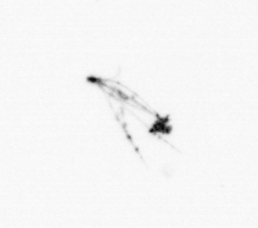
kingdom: Chromista
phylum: Ochrophyta
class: Bacillariophyceae
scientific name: Bacillariophyceae
